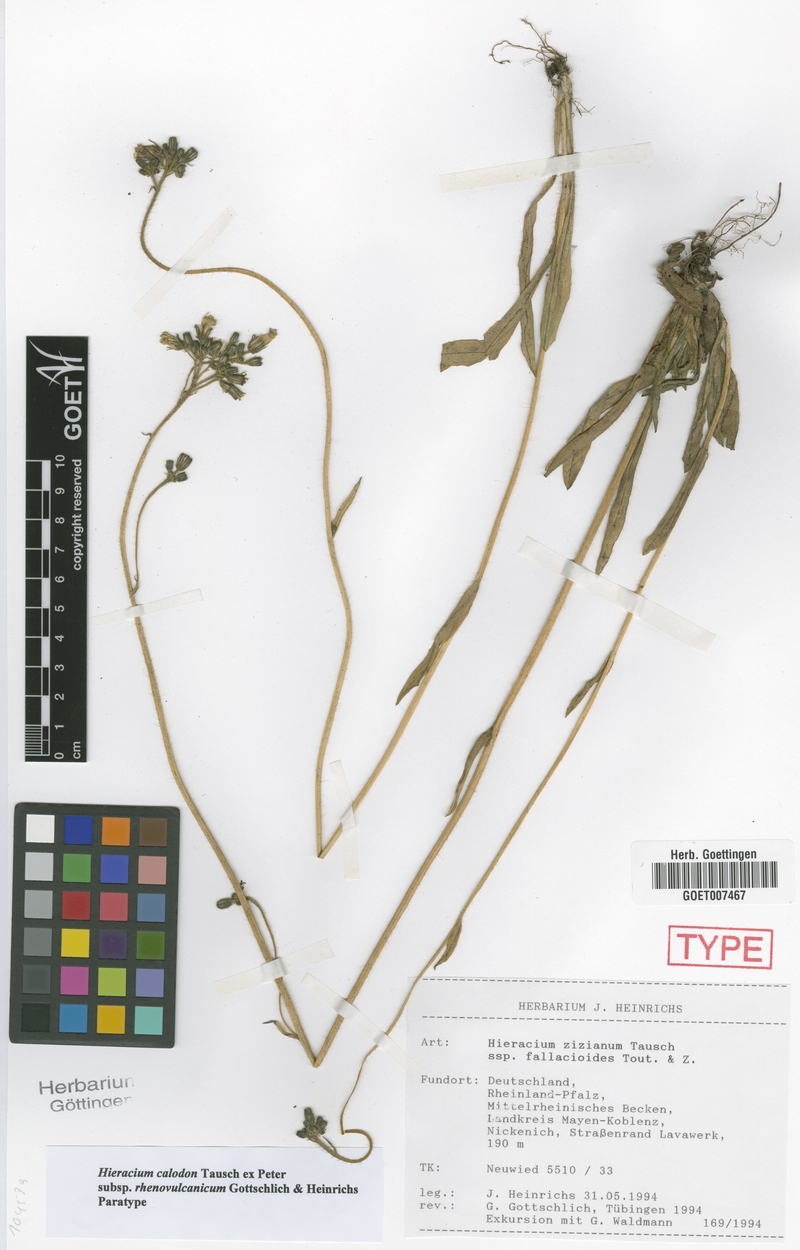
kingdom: Plantae
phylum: Tracheophyta
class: Magnoliopsida
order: Asterales
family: Asteraceae
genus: Pilosella
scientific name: Pilosella calodon
